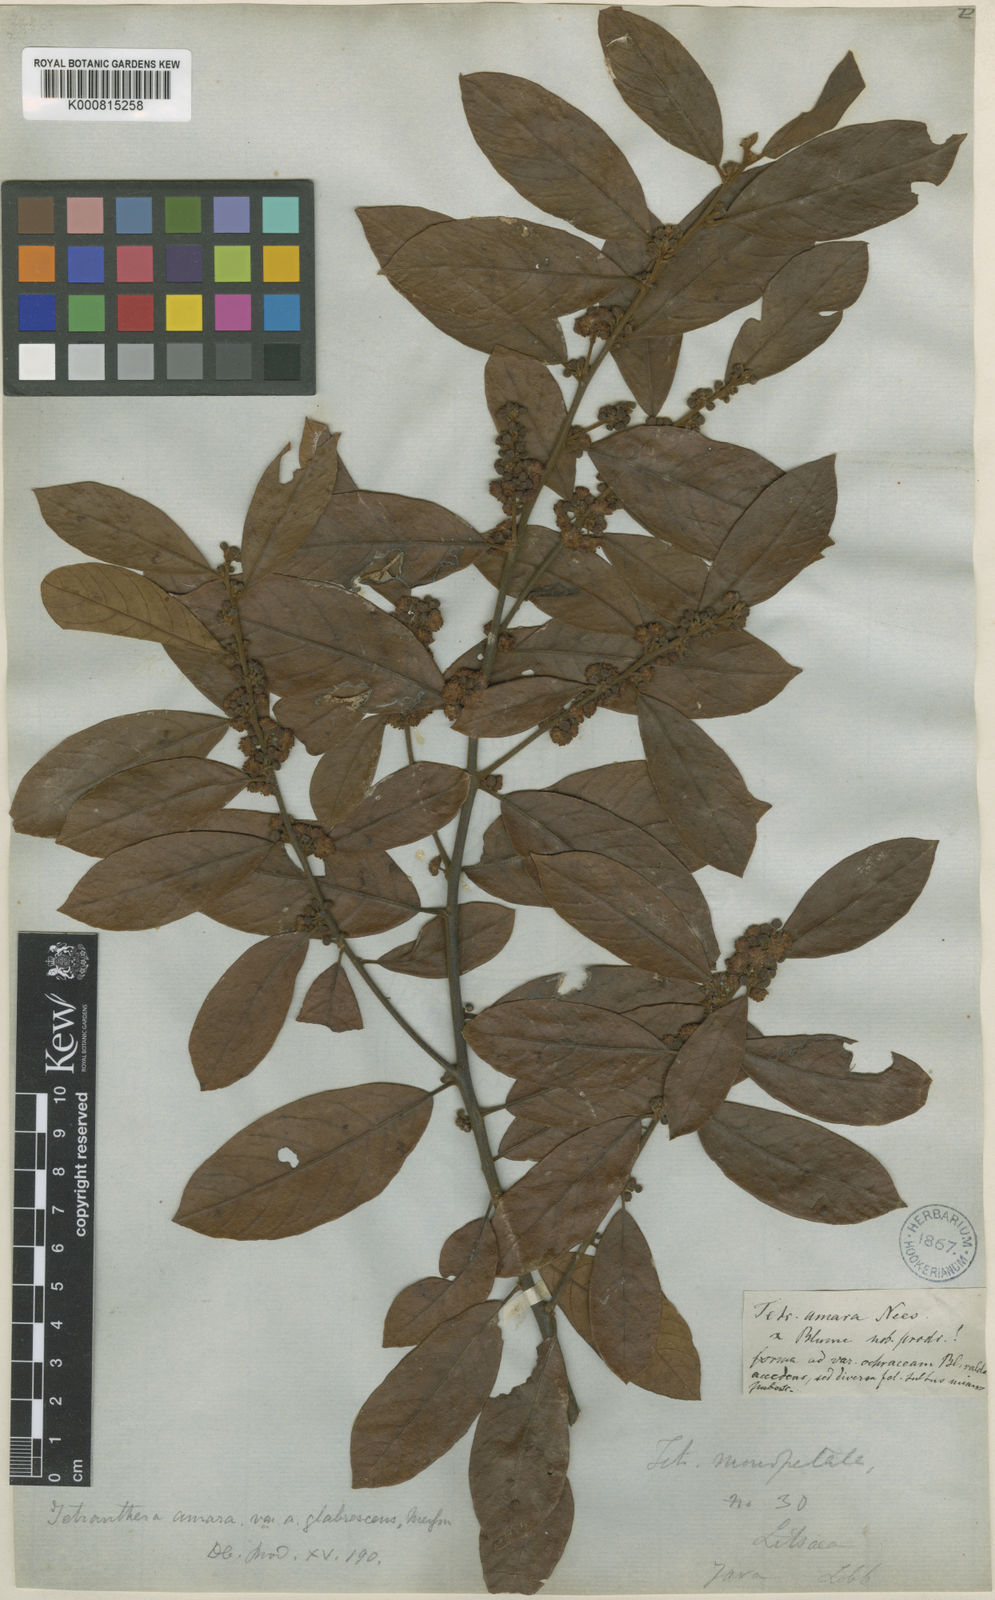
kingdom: Plantae
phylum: Tracheophyta
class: Magnoliopsida
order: Laurales
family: Lauraceae
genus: Litsea
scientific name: Litsea umbellata
